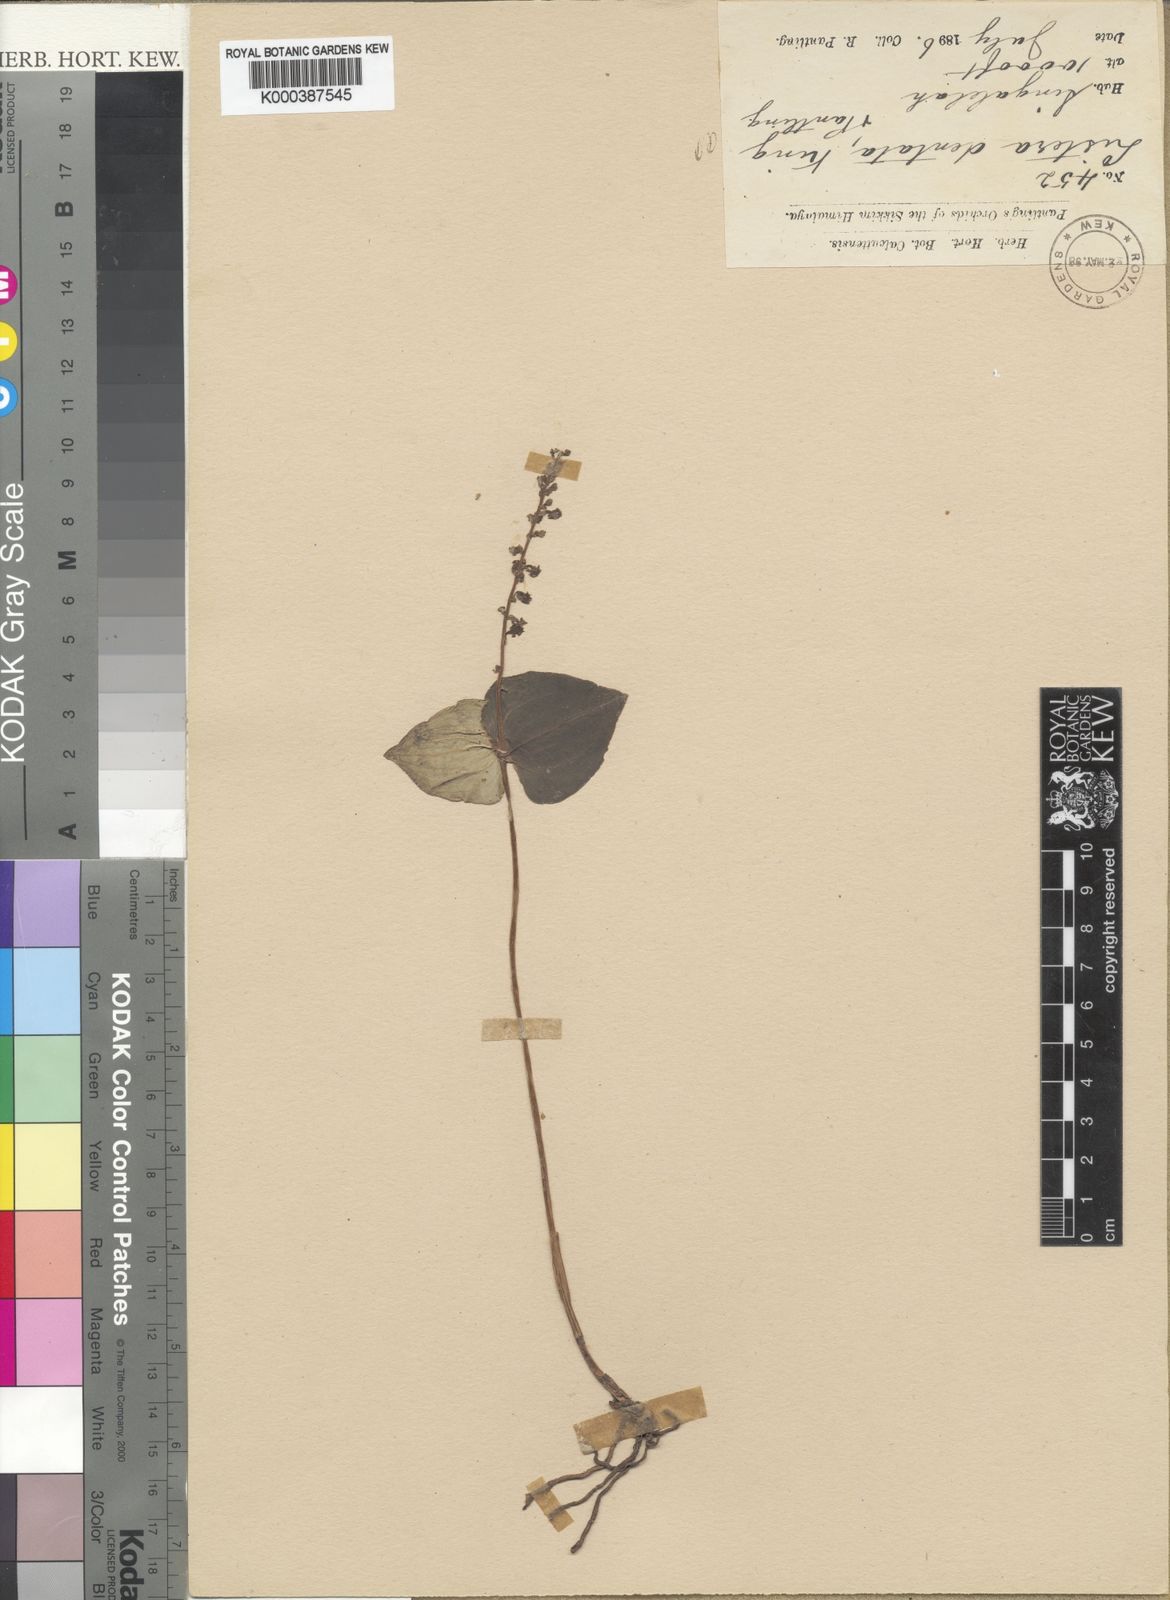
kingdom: Plantae
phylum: Tracheophyta
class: Liliopsida
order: Asparagales
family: Orchidaceae
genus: Neottia
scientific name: Neottia dentata
